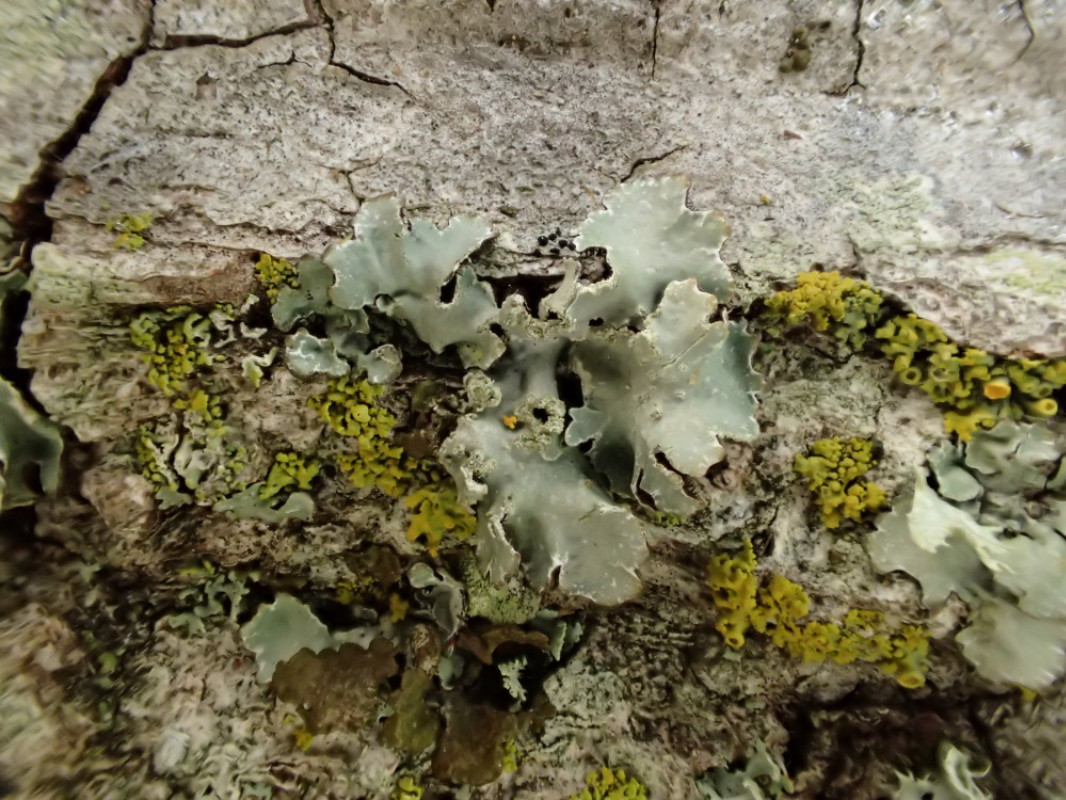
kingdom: Fungi
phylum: Ascomycota
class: Lecanoromycetes
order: Lecanorales
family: Parmeliaceae
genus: Parmelia
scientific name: Parmelia sulcata
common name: rynket skållav
